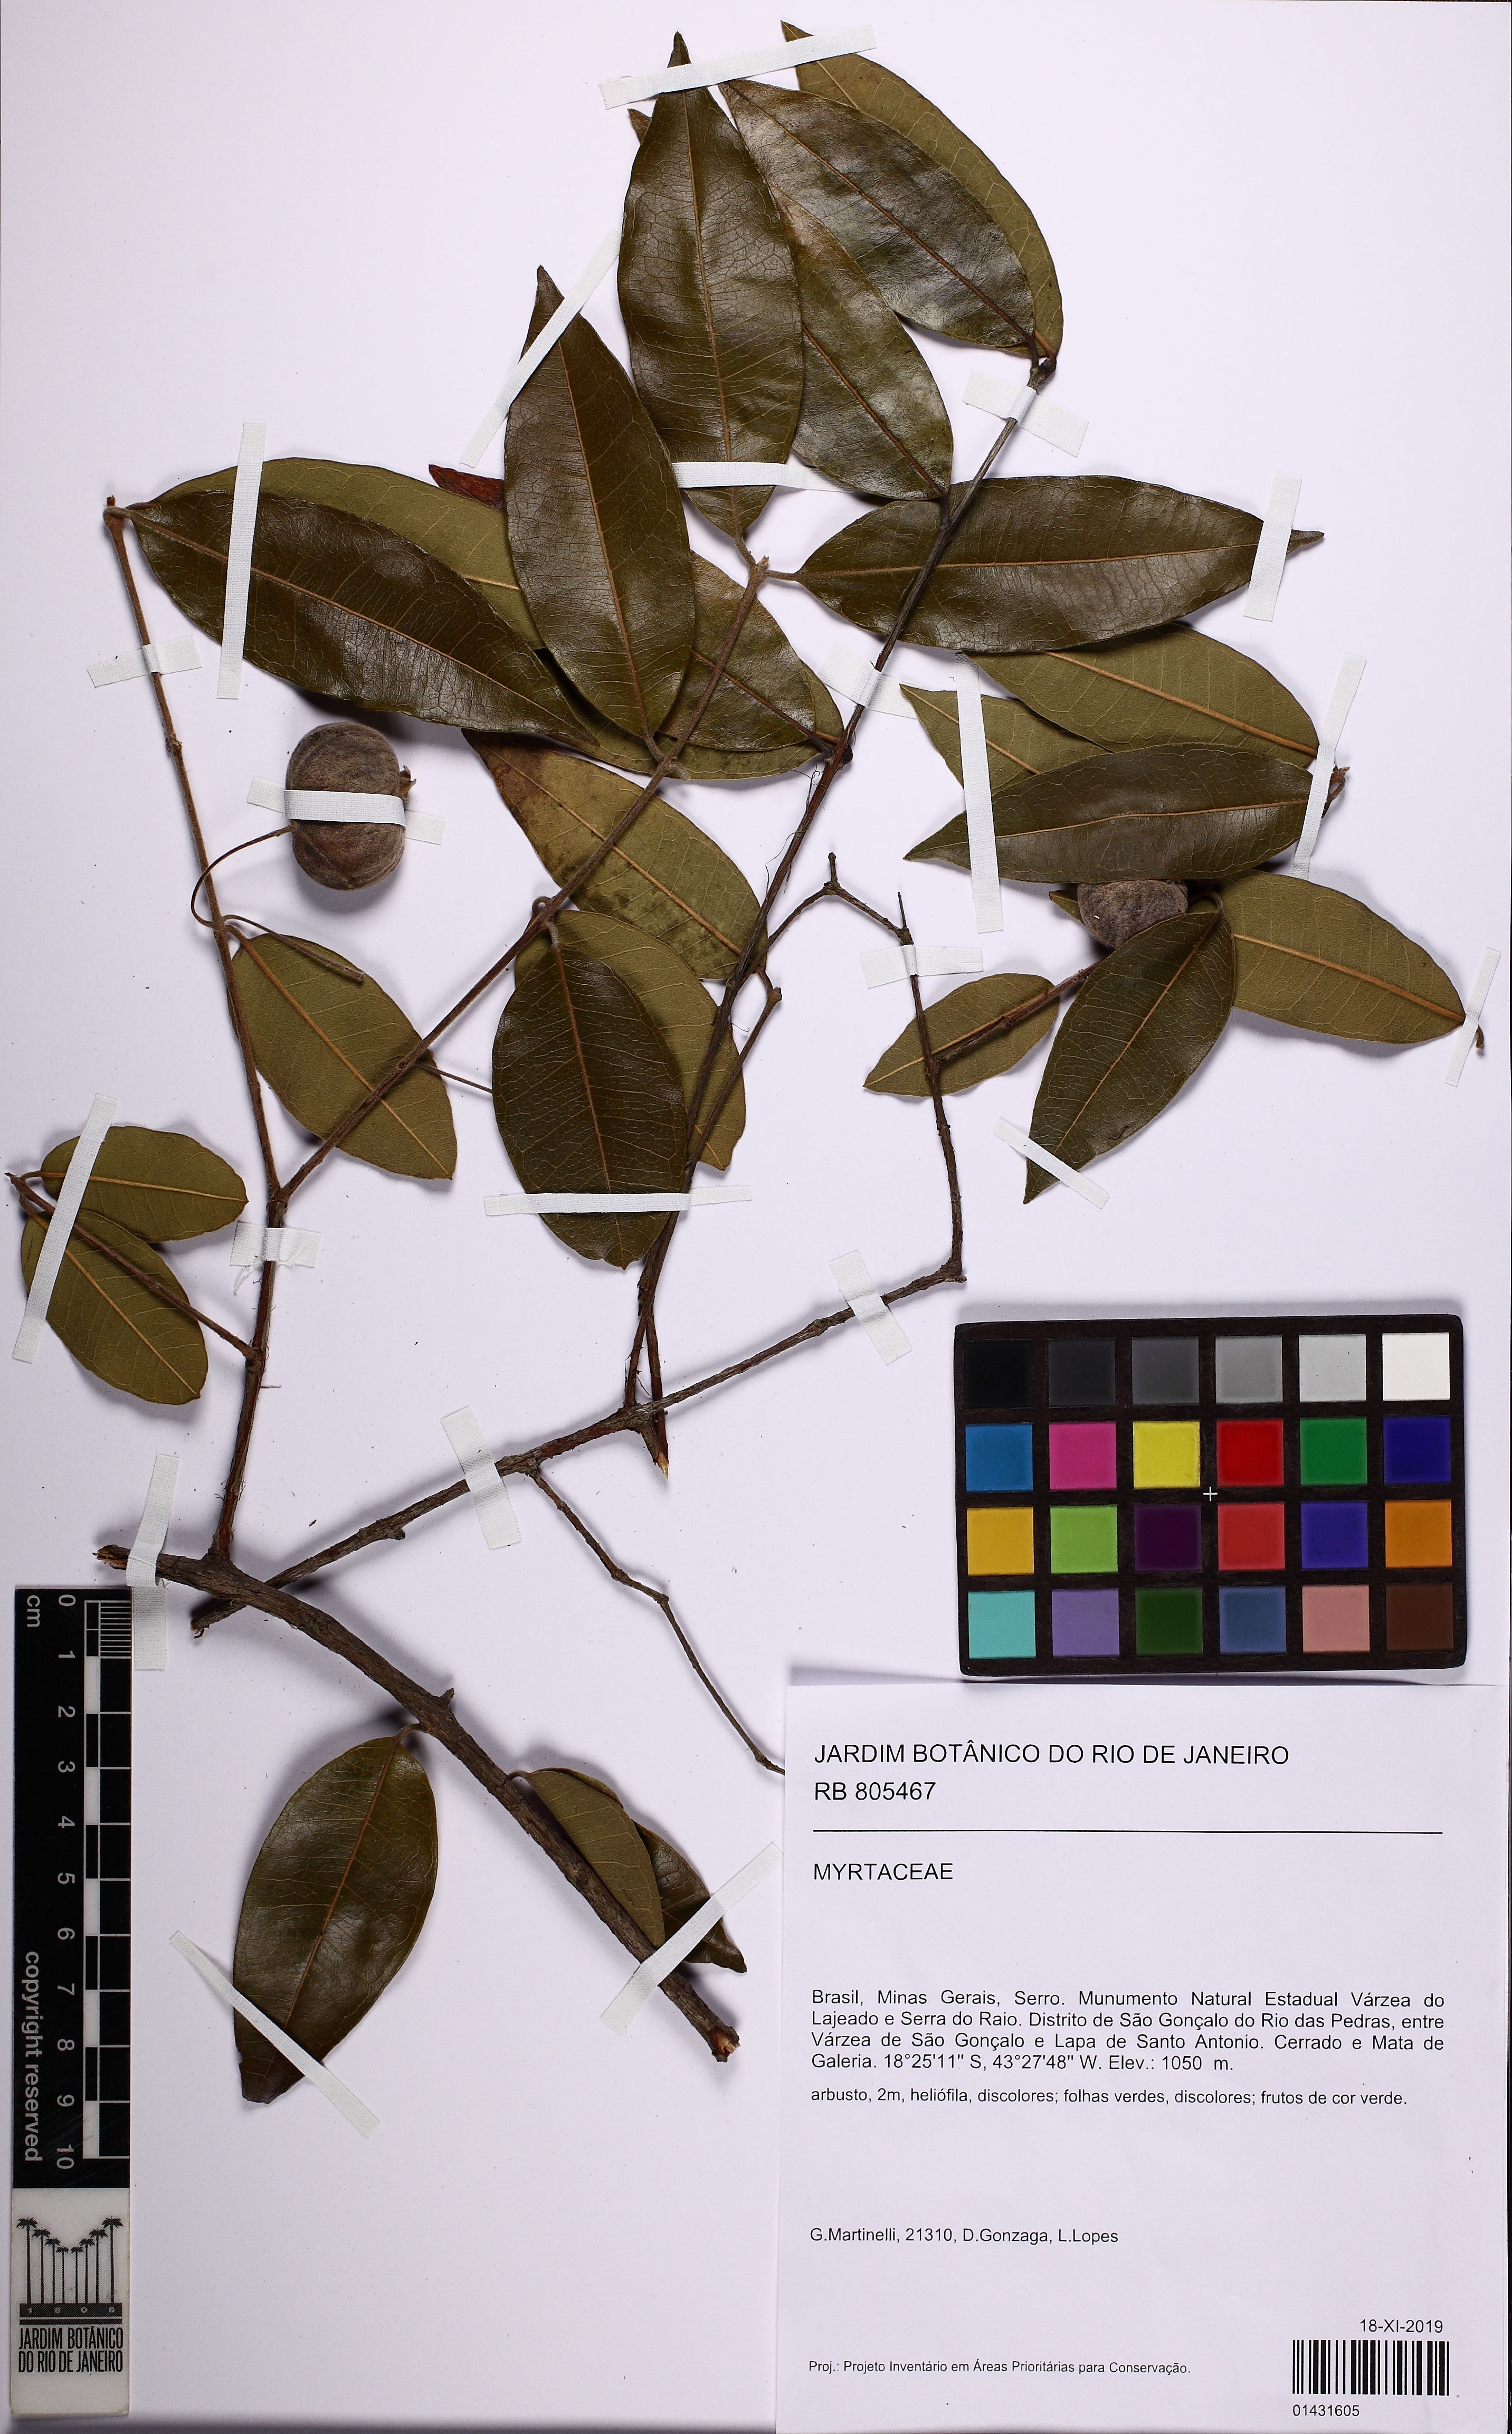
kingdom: Plantae
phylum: Tracheophyta
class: Magnoliopsida
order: Myrtales
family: Myrtaceae
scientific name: Myrtaceae
